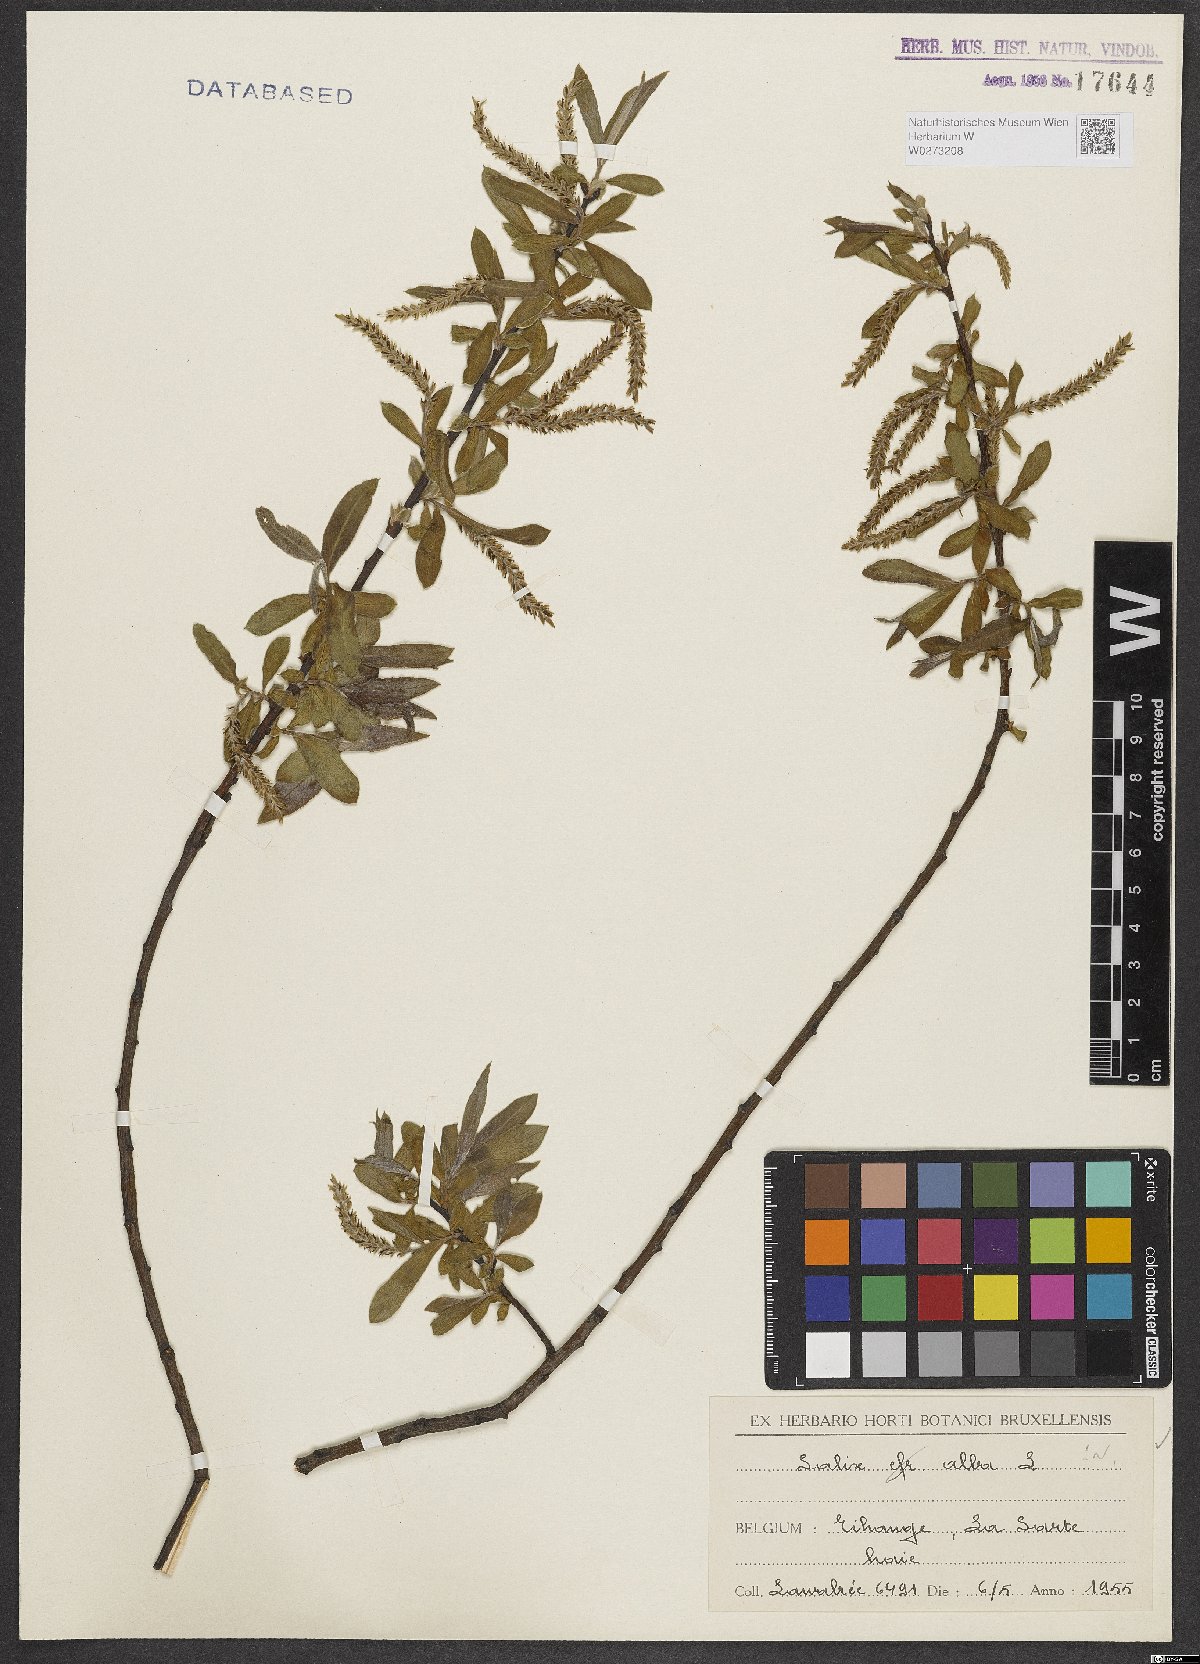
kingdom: Plantae
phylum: Tracheophyta
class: Magnoliopsida
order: Malpighiales
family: Salicaceae
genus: Salix
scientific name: Salix alba
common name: White willow
